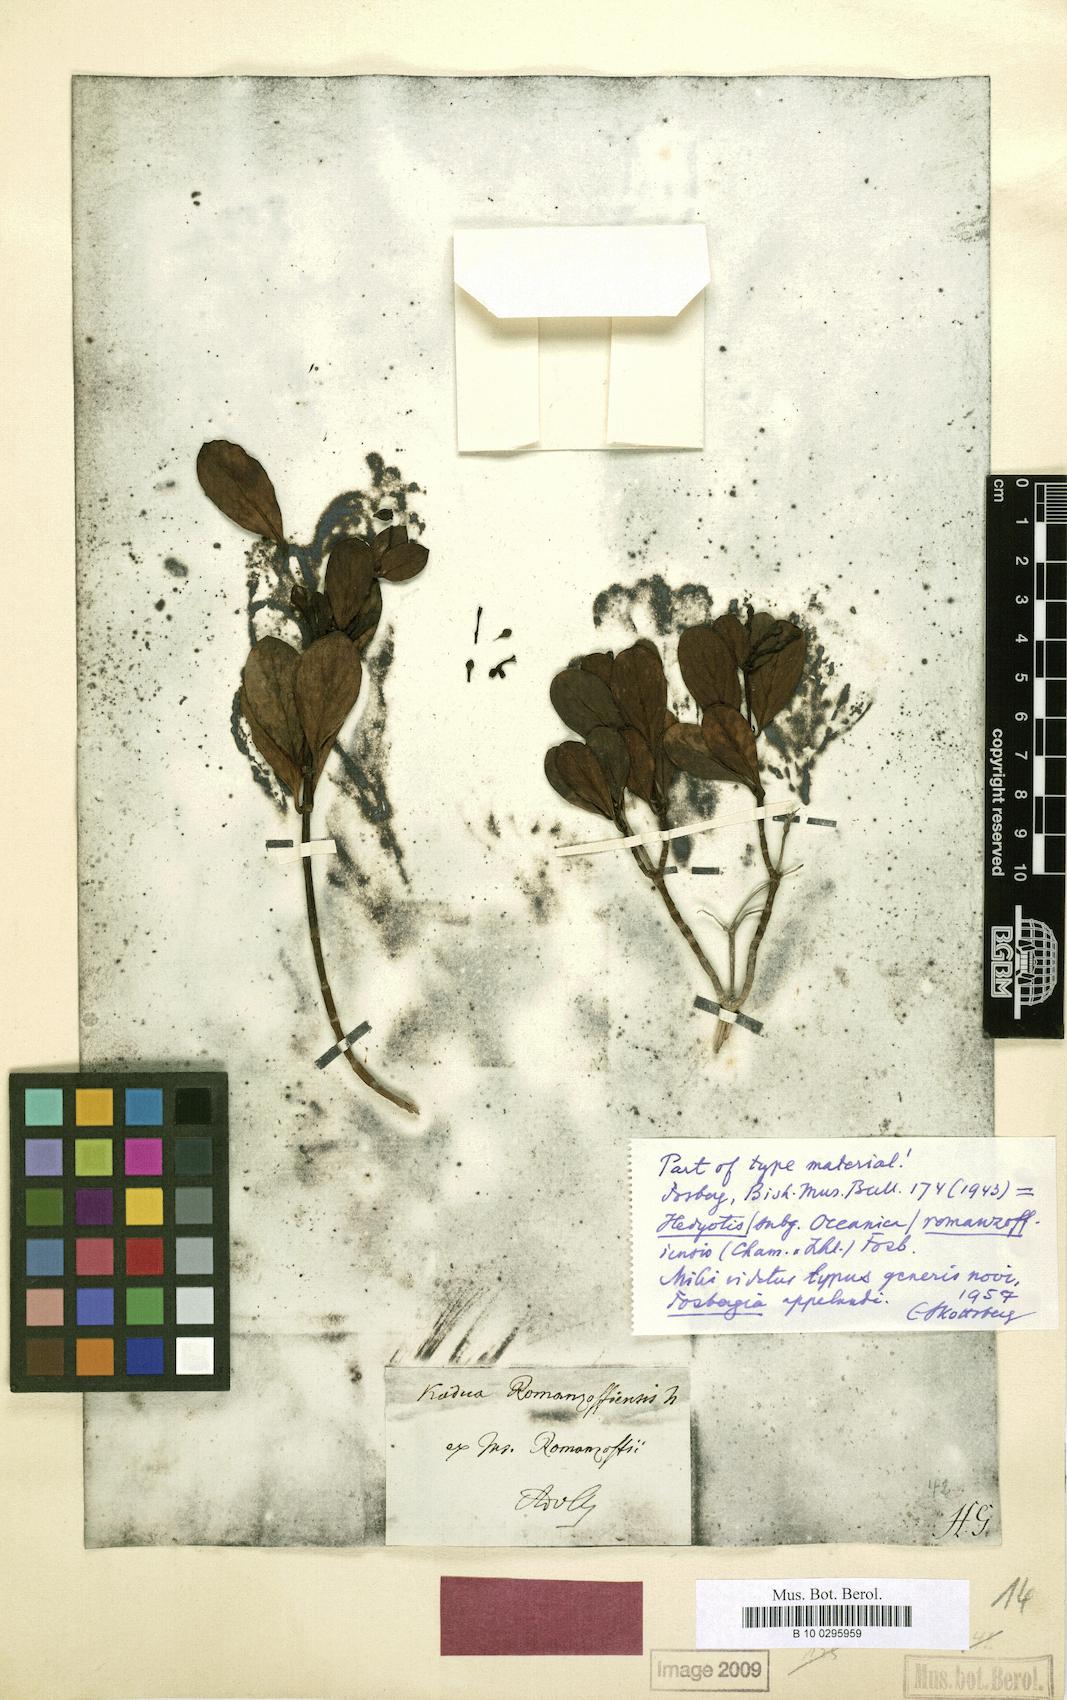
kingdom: Plantae
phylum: Tracheophyta
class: Magnoliopsida
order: Gentianales
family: Rubiaceae
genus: Kadua
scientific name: Kadua romanzoffiensis
